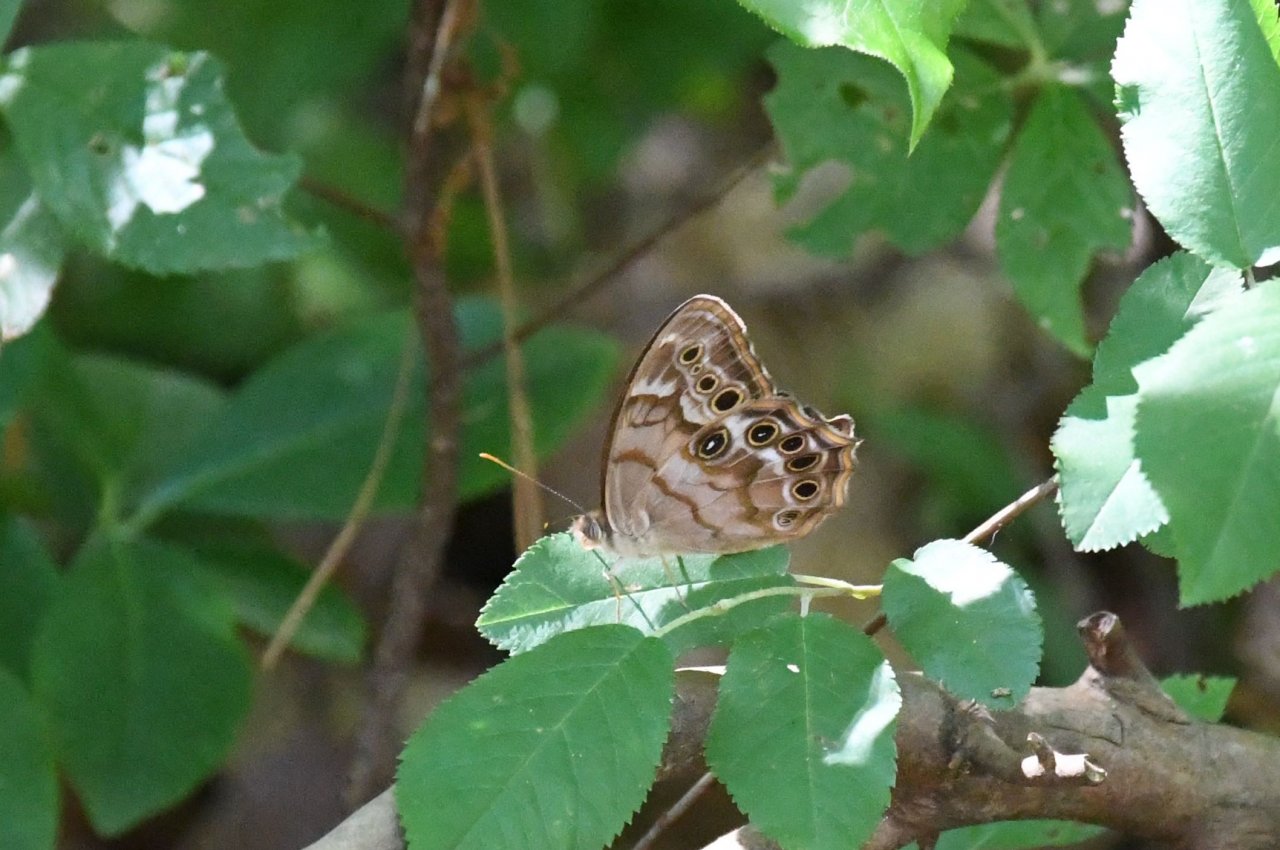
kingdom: Animalia
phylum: Arthropoda
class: Insecta
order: Lepidoptera
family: Nymphalidae
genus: Enodia
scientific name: Enodia portlandia
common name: Southern Pearly Eye
